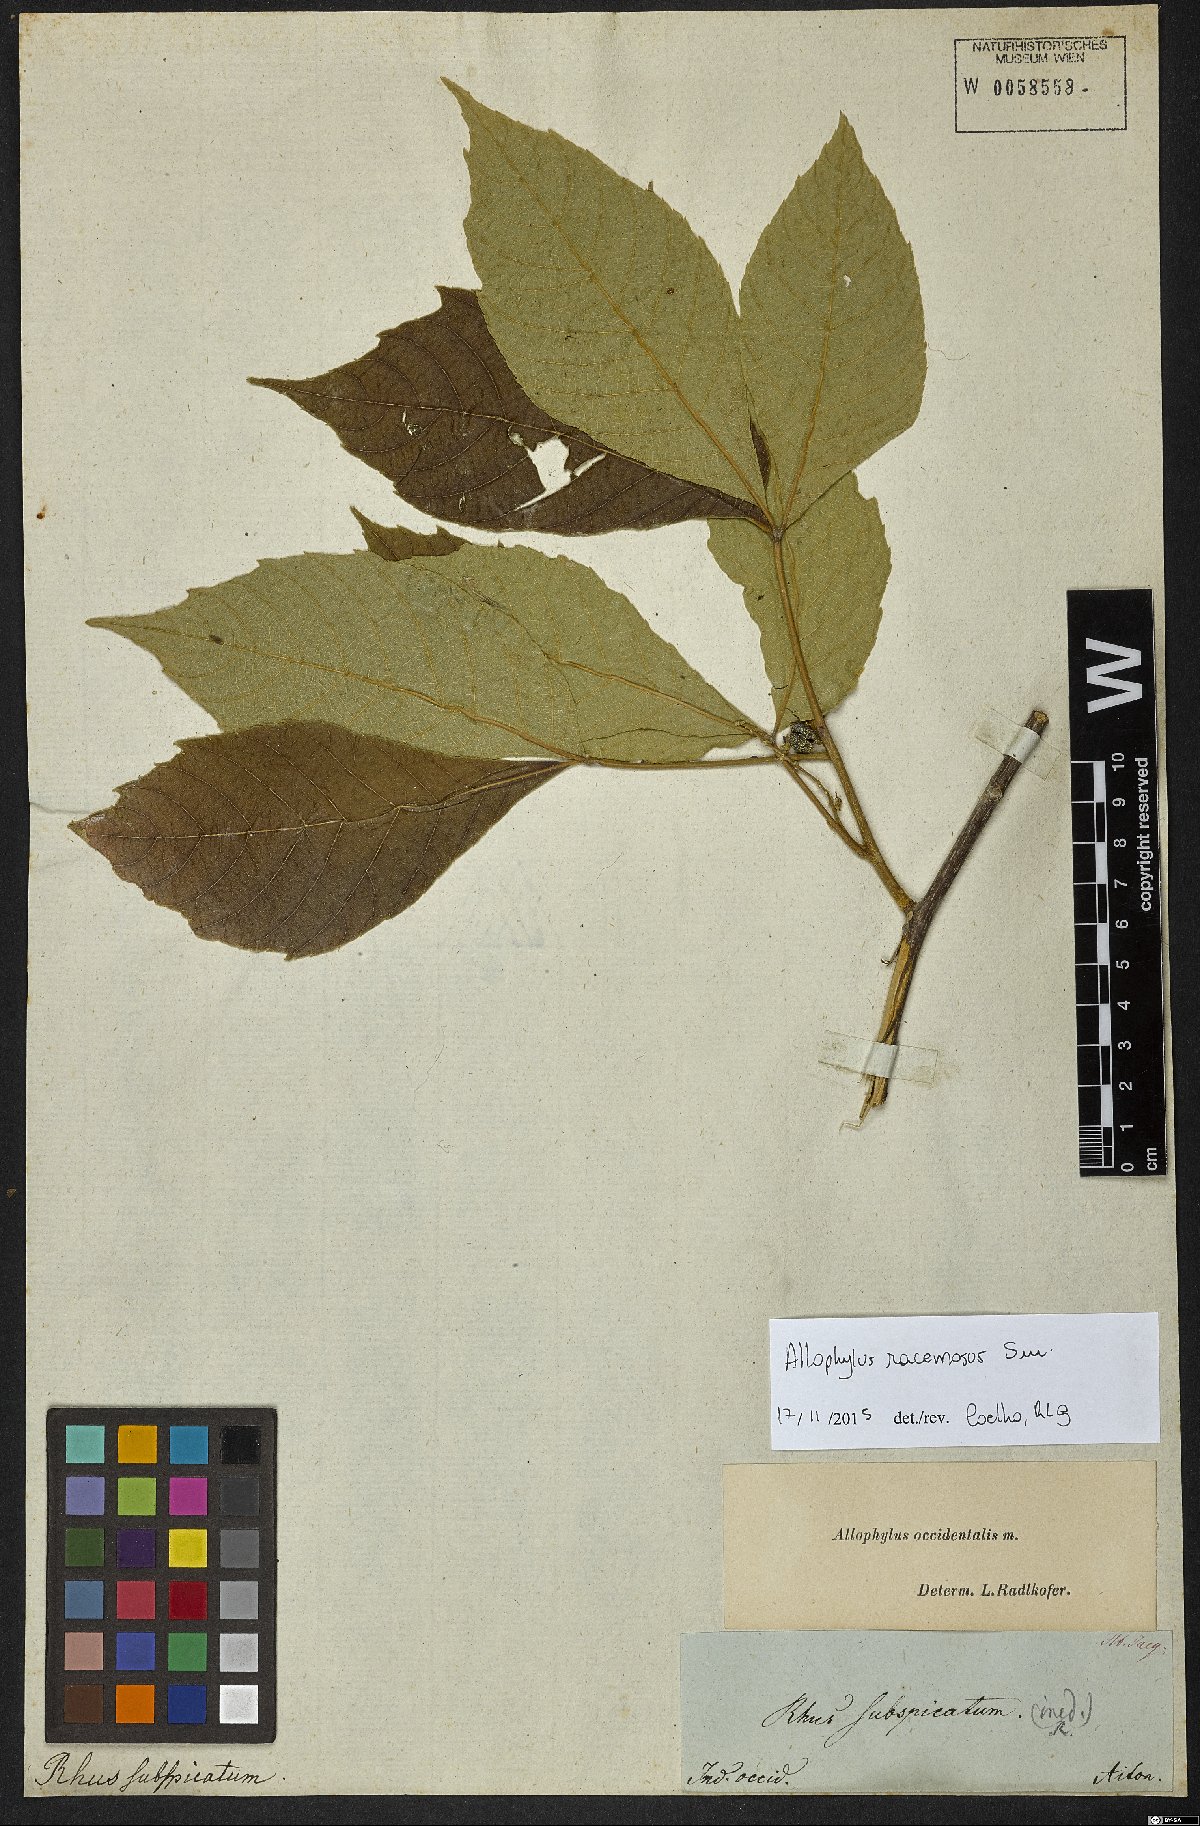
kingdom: Plantae
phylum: Tracheophyta
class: Magnoliopsida
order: Sapindales
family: Sapindaceae
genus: Allophylus
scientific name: Allophylus racemosus
